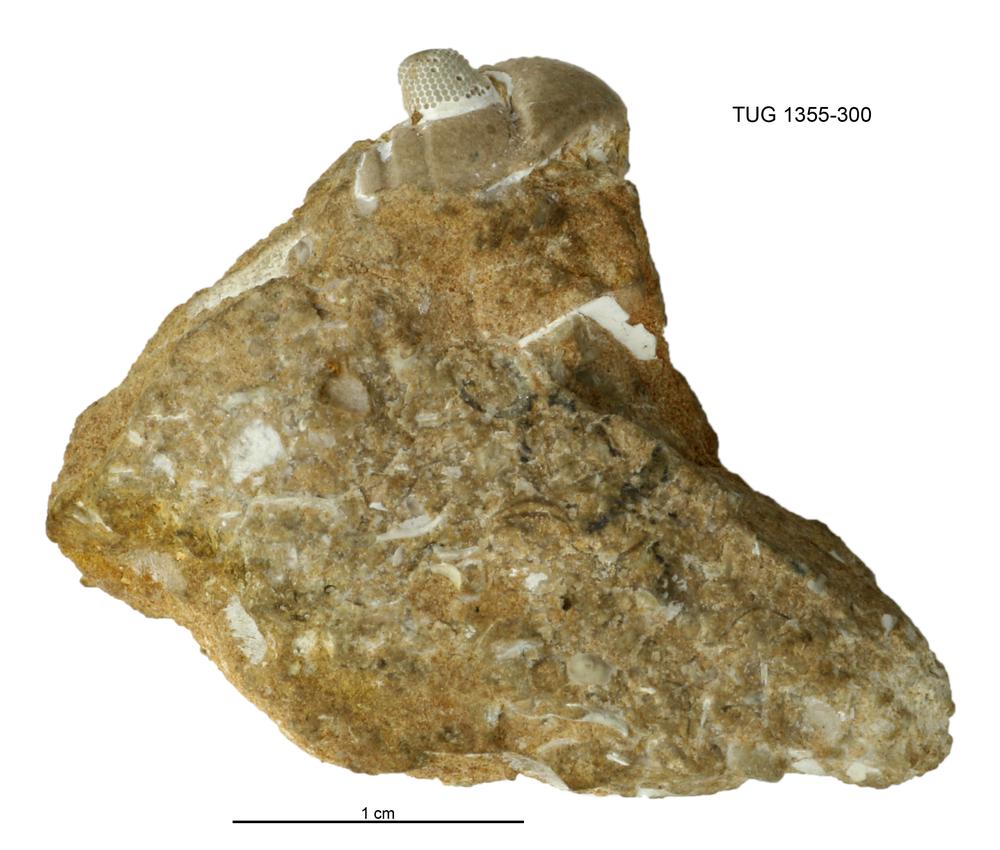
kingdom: Animalia
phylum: Arthropoda
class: Trilobita
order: Phacopida
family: Pterygometopidae
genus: Pterygometopus
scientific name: Pterygometopus
